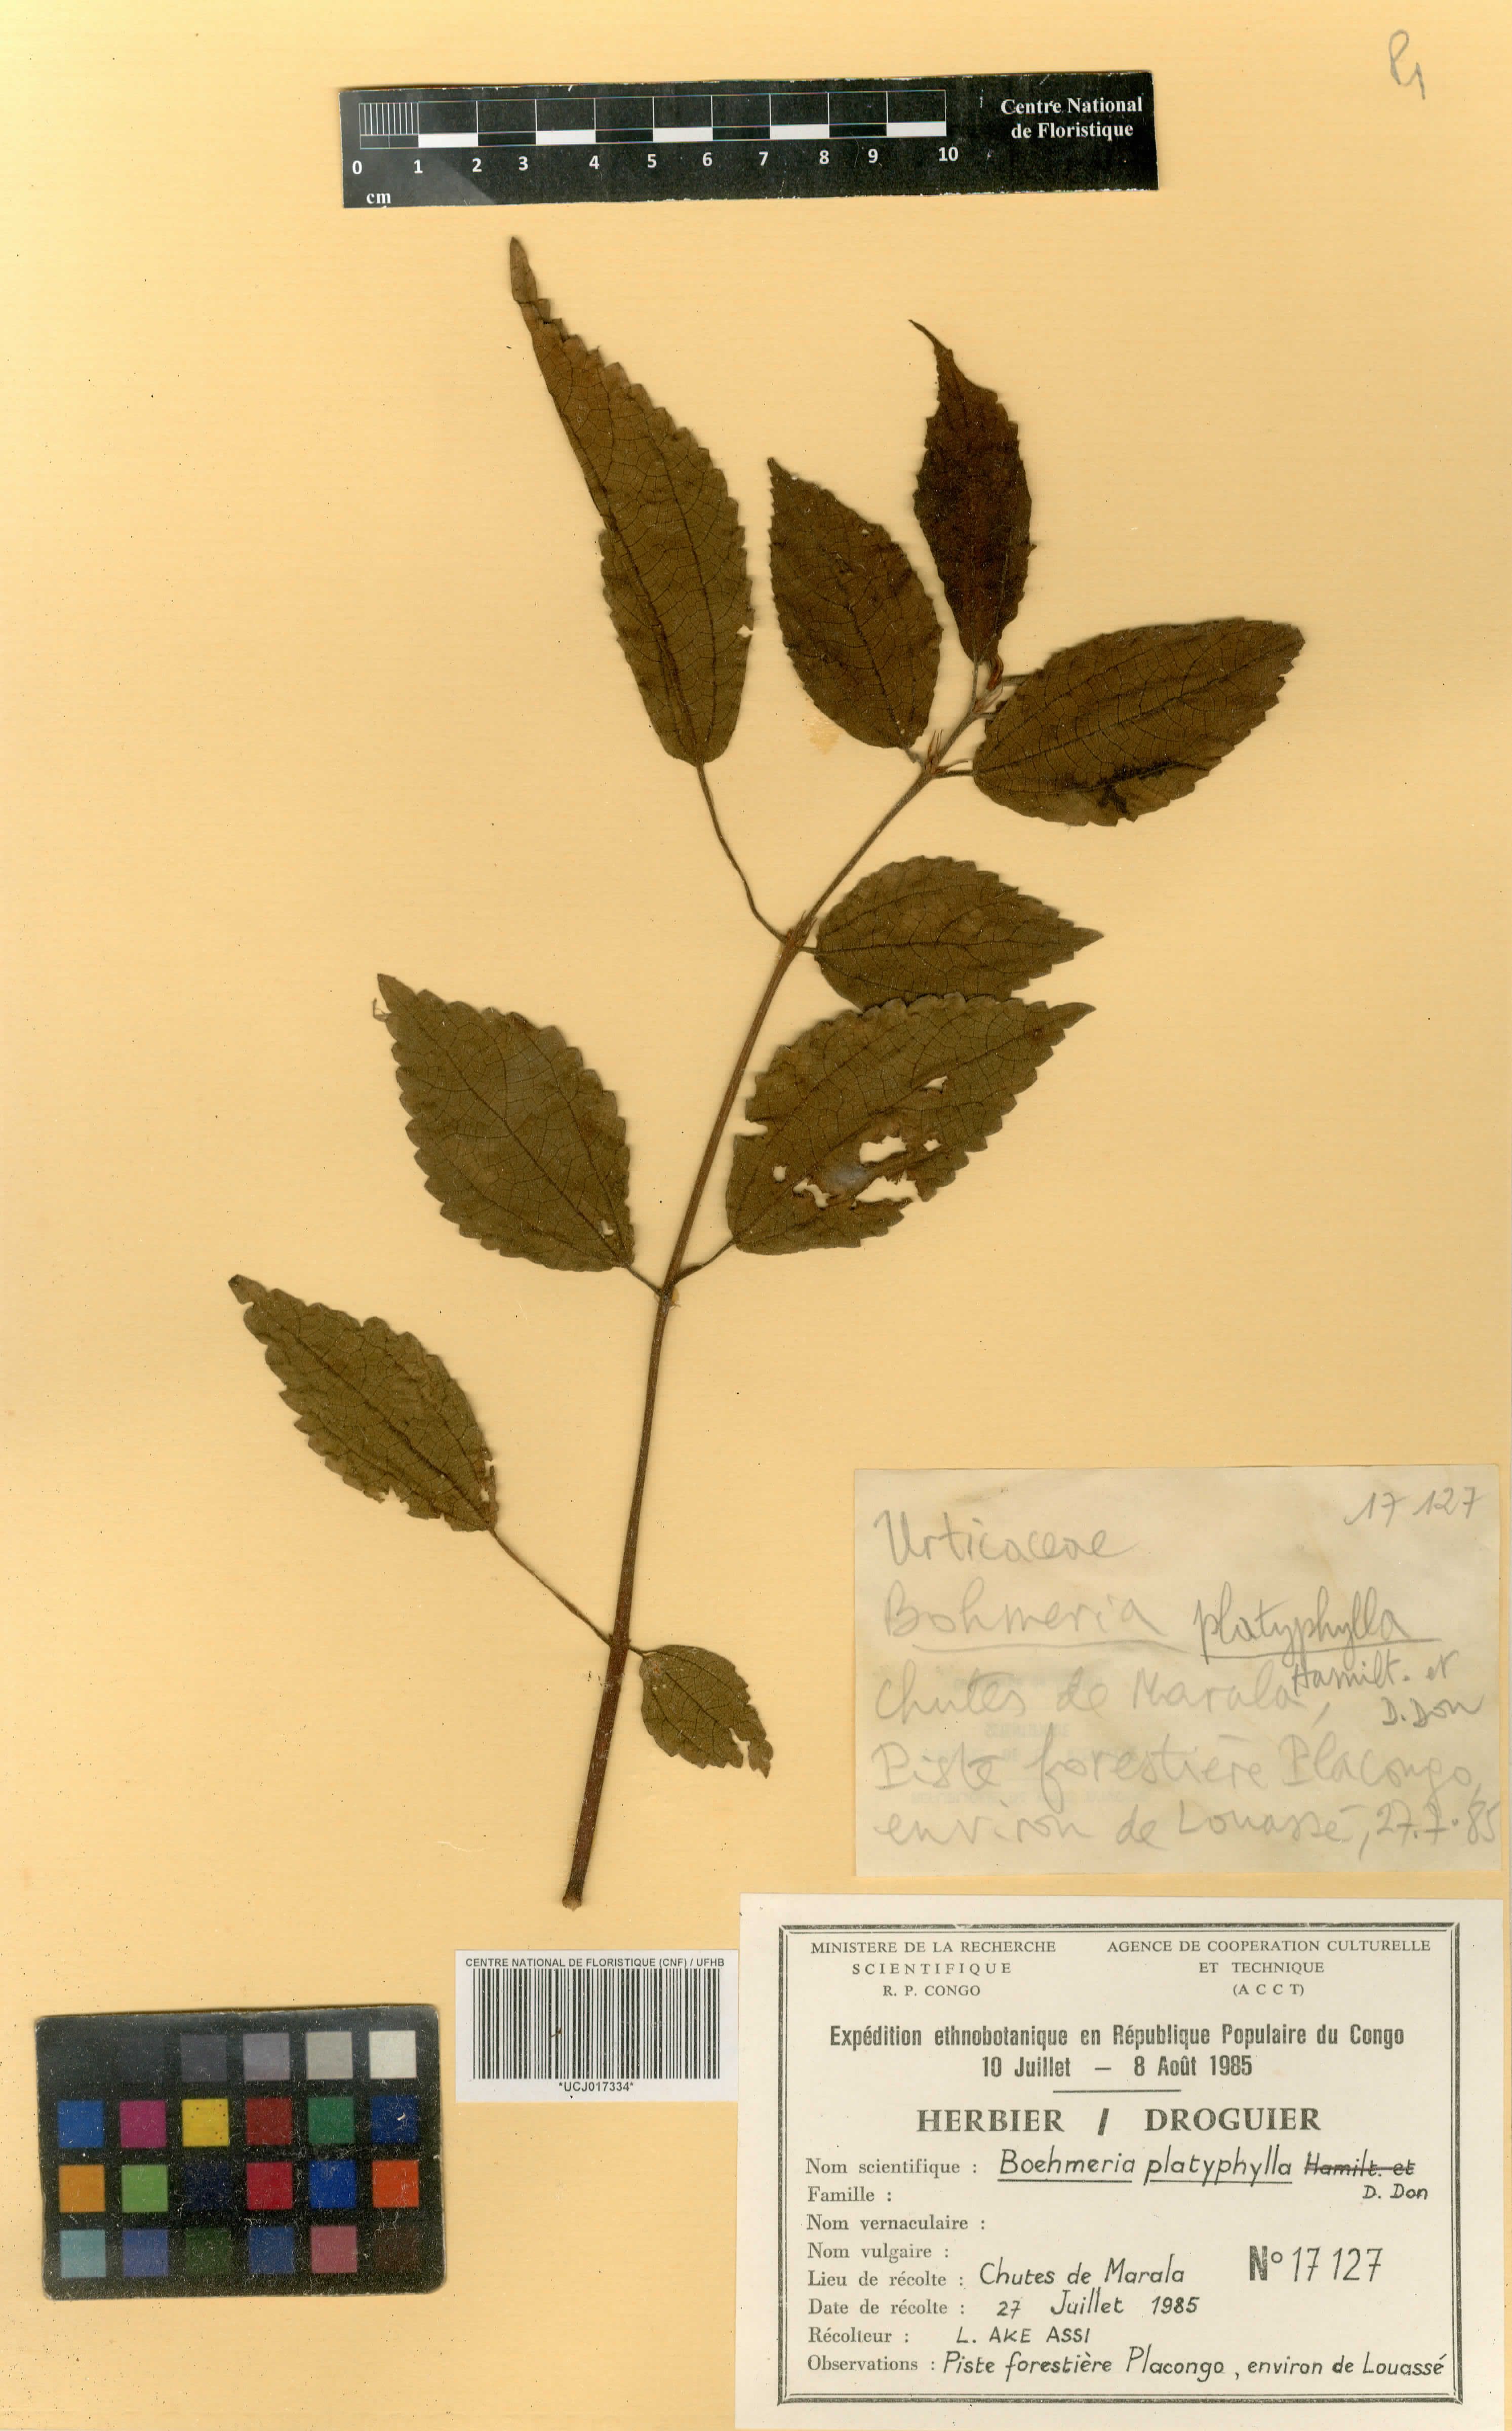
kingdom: Plantae
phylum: Tracheophyta
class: Magnoliopsida
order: Rosales
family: Urticaceae
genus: Boehmeria
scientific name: Boehmeria virgata
